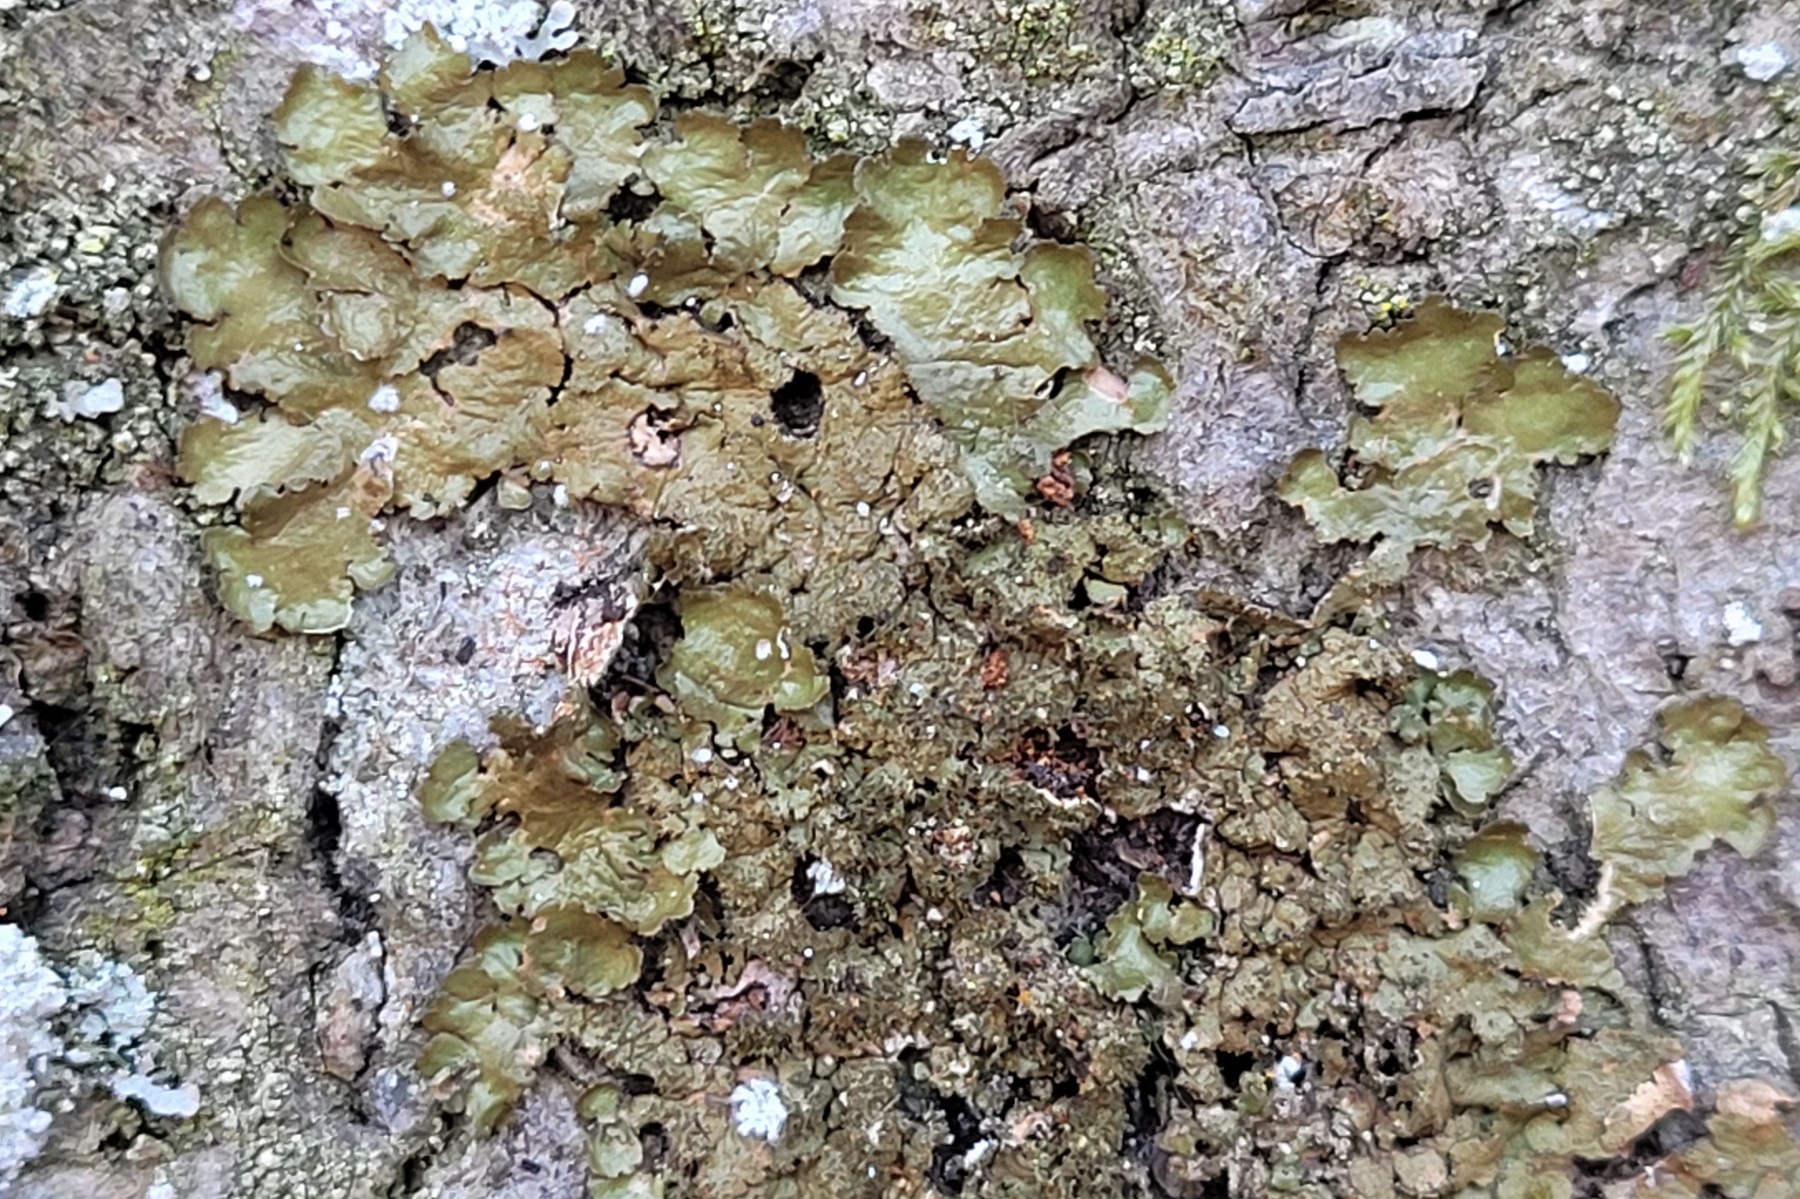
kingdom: Fungi
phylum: Ascomycota
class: Lecanoromycetes
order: Lecanorales
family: Parmeliaceae
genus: Melanelixia
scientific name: Melanelixia glabratula
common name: glinsende skållav
